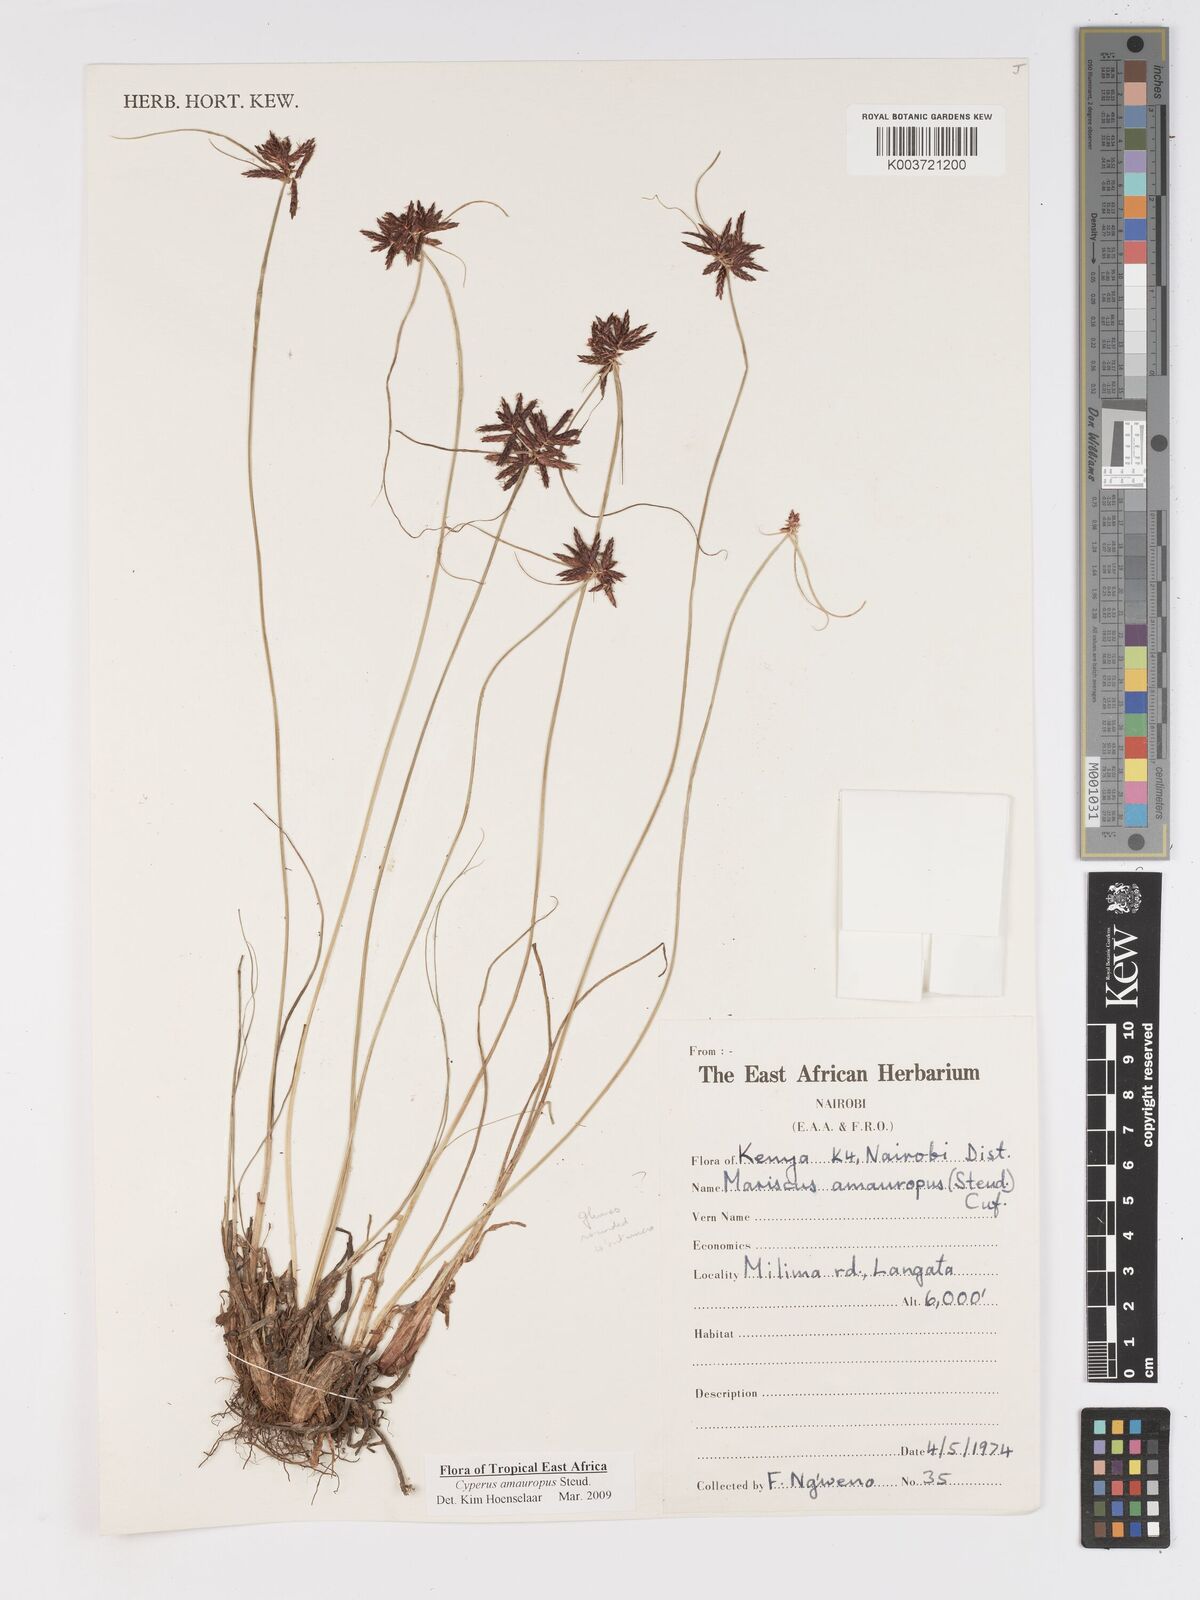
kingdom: Plantae
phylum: Tracheophyta
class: Liliopsida
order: Poales
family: Cyperaceae
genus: Cyperus
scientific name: Cyperus amauropus
